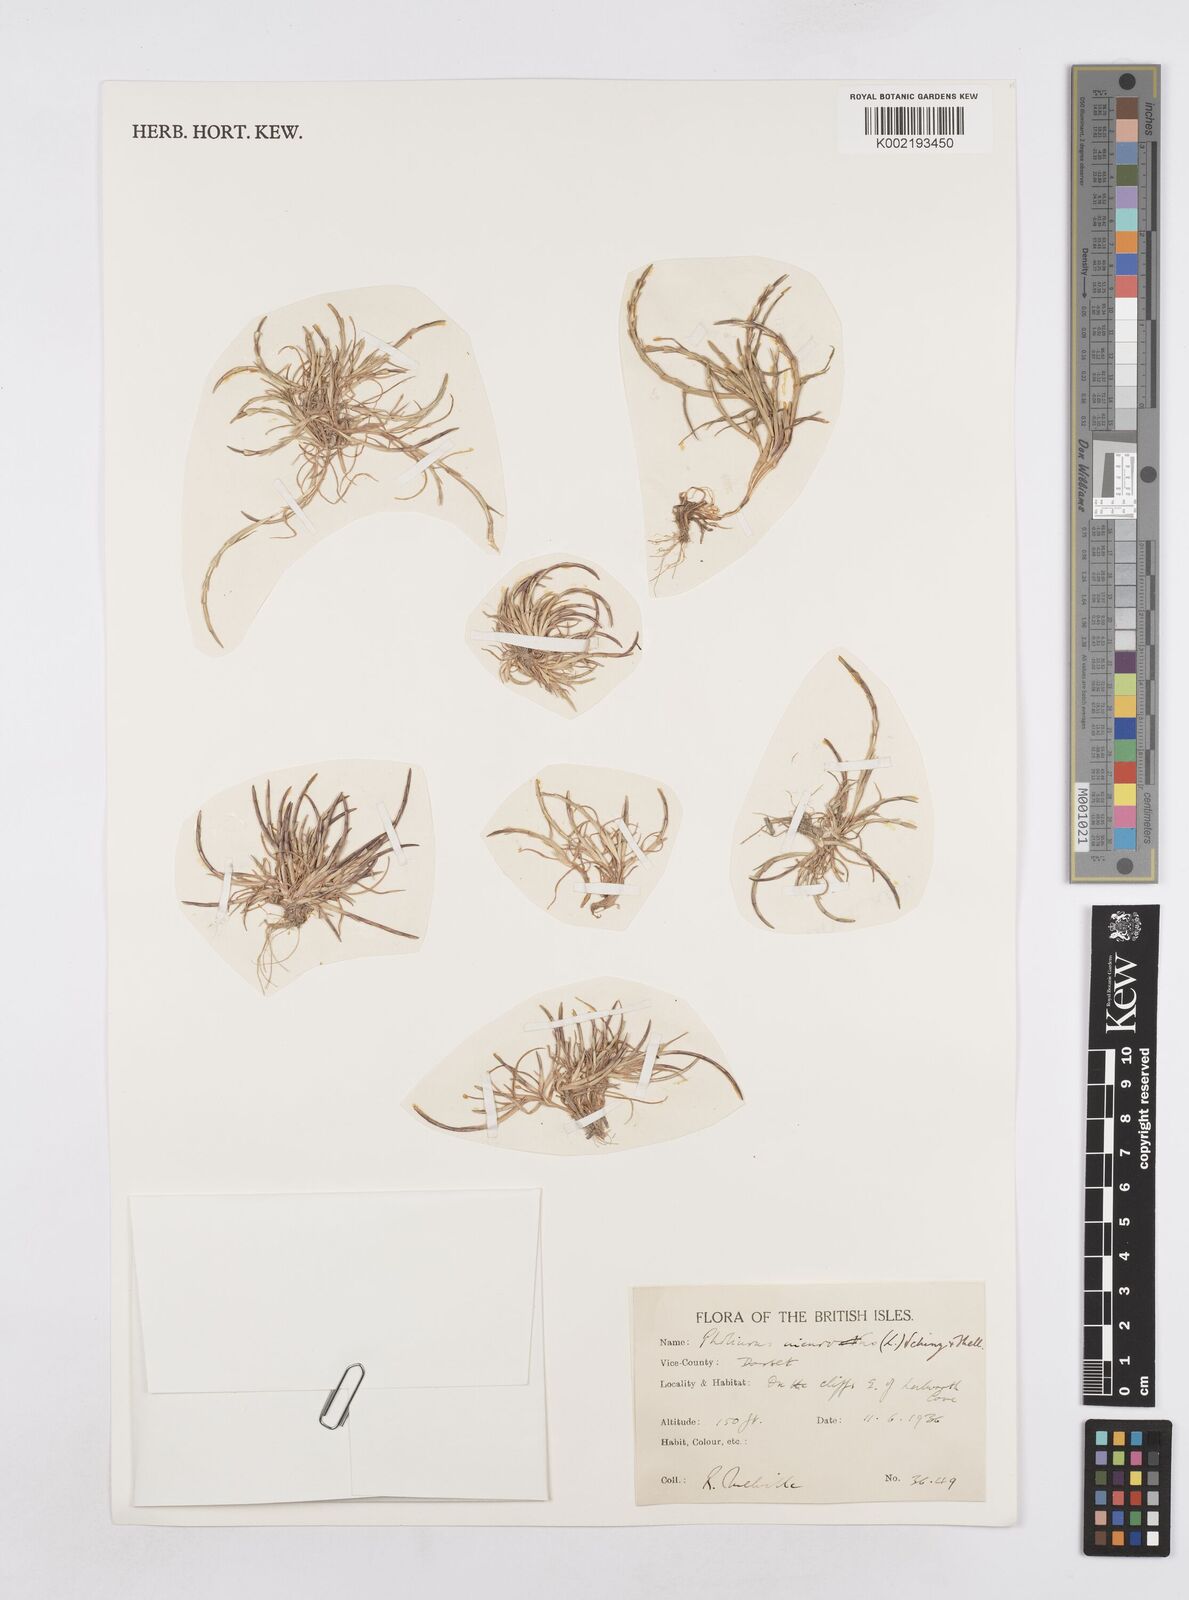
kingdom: Plantae
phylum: Tracheophyta
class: Liliopsida
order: Poales
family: Poaceae
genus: Parapholis
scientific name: Parapholis incurva
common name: Curved sicklegrass
